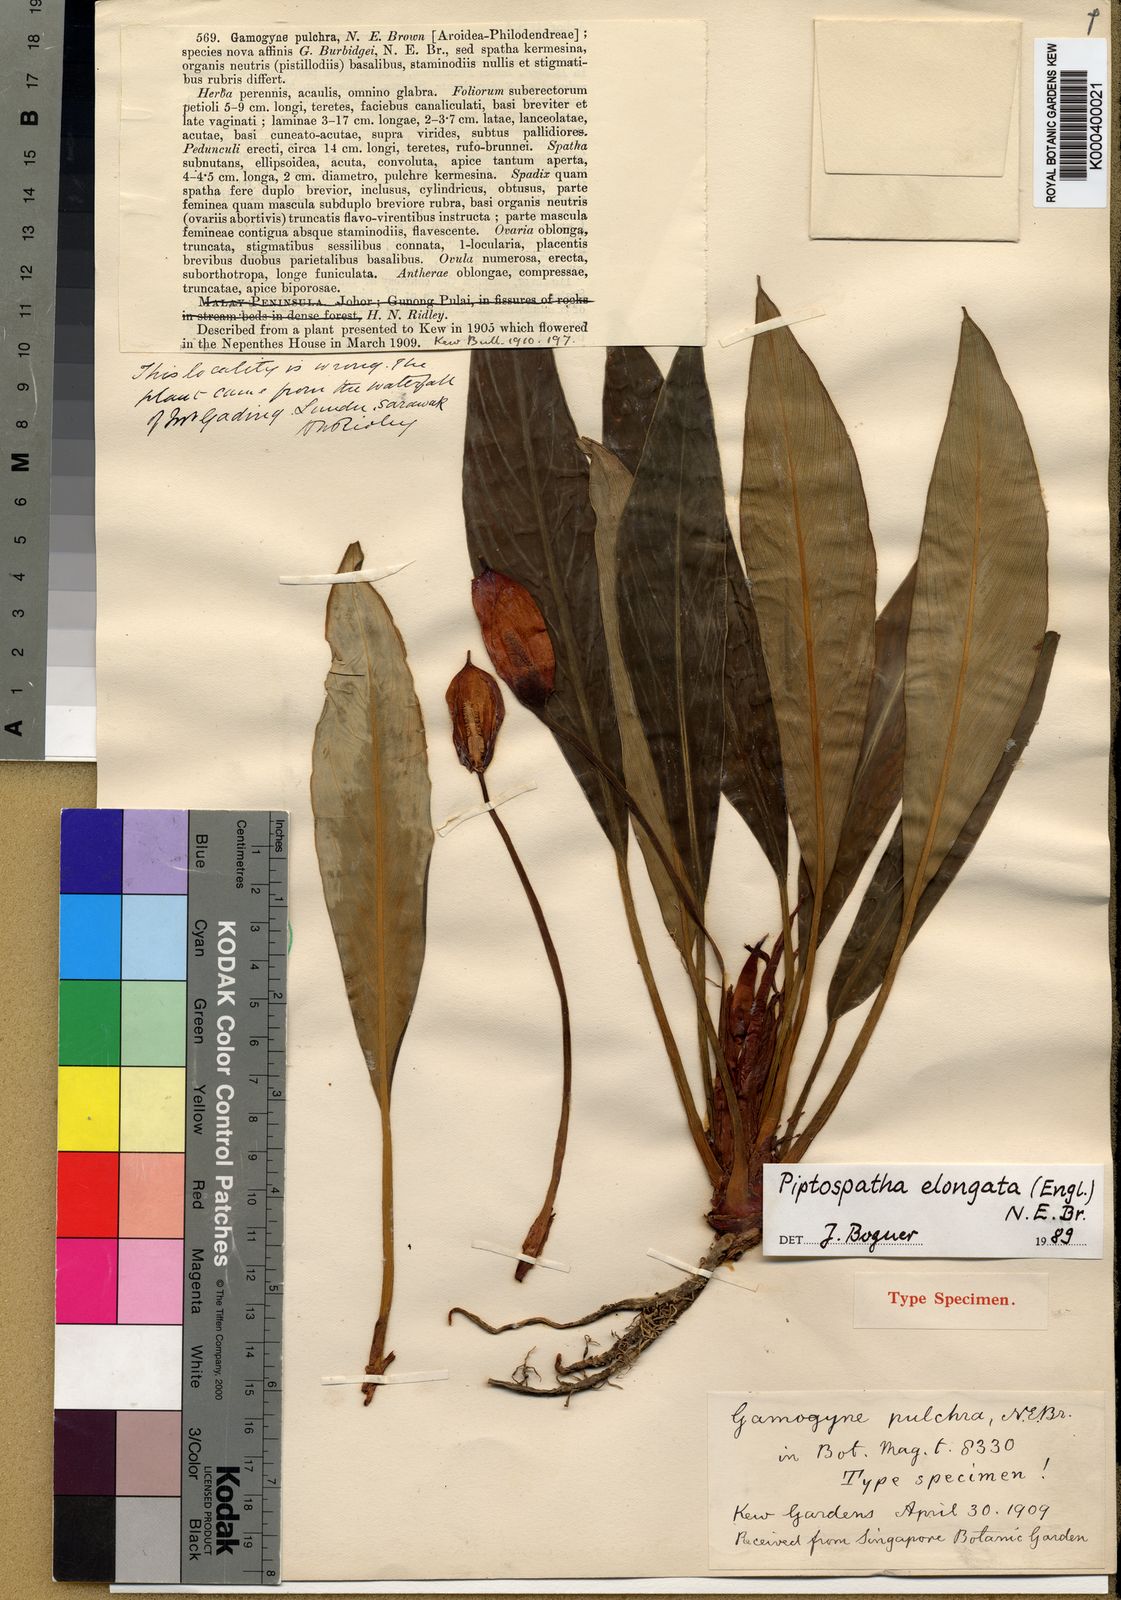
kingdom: Plantae
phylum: Tracheophyta
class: Liliopsida
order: Alismatales
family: Araceae
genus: Rhynchopyle
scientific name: Rhynchopyle elongata
